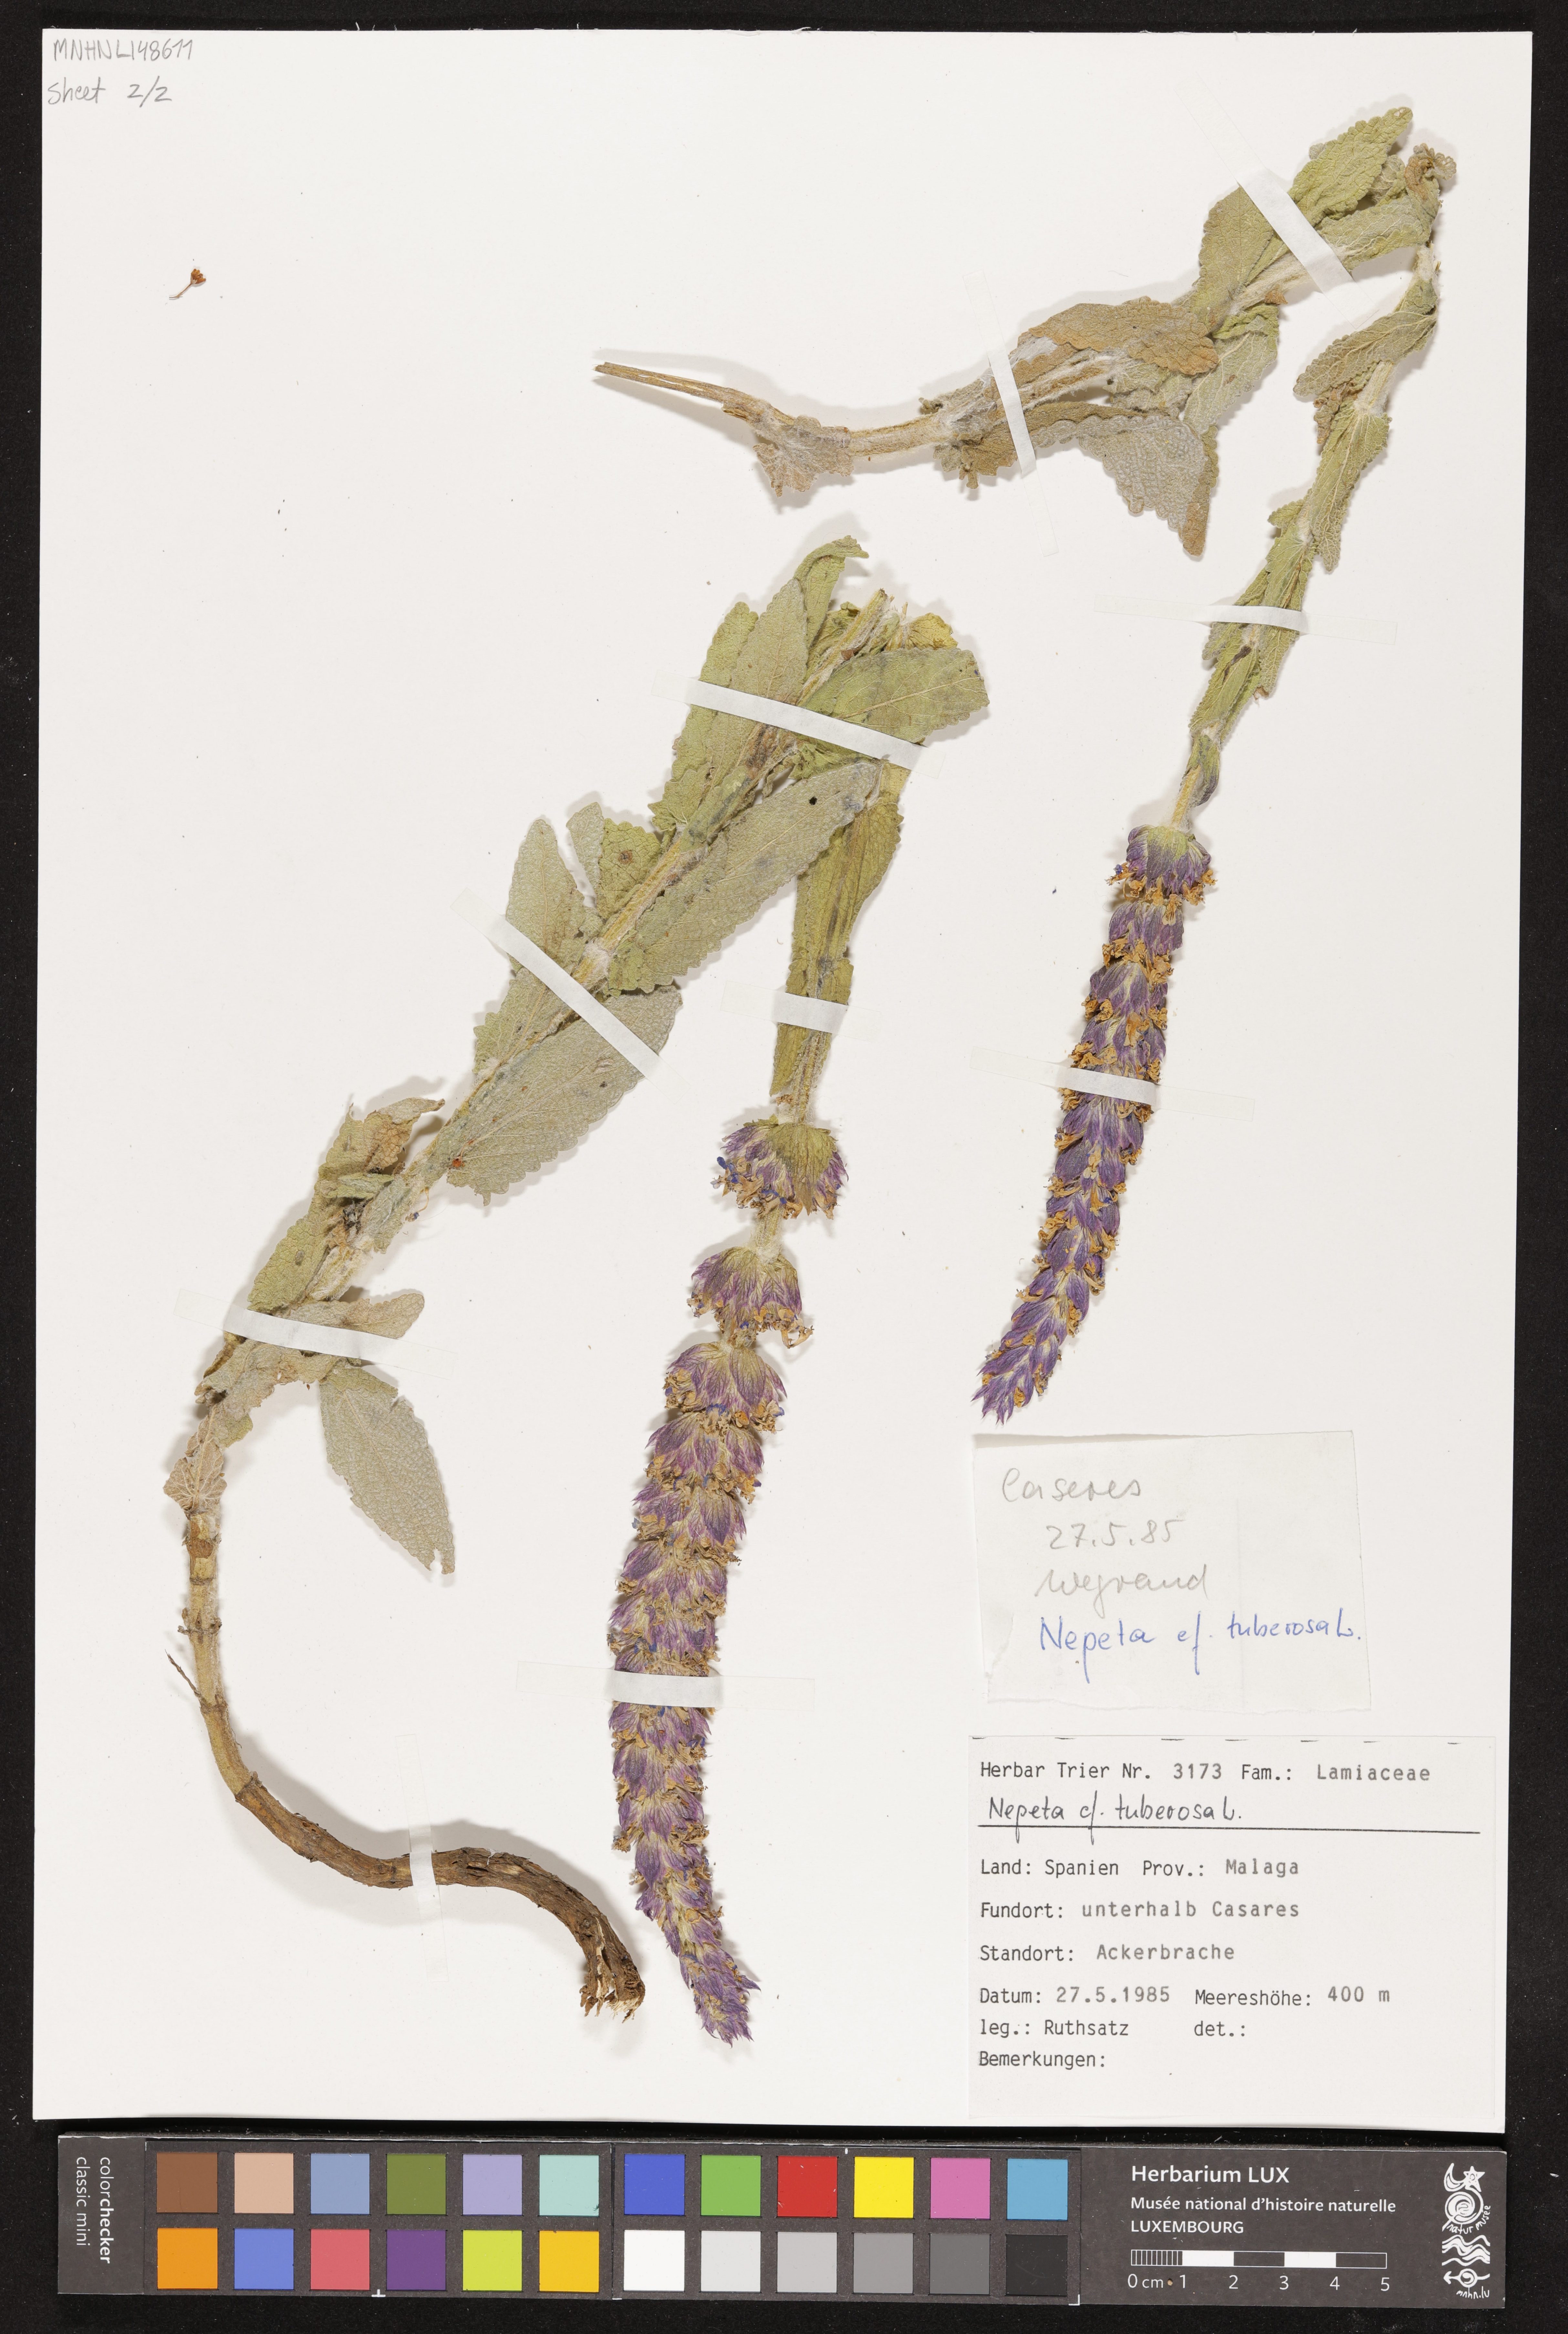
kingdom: Plantae
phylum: Tracheophyta
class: Magnoliopsida
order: Lamiales
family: Lamiaceae
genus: Nepeta
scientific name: Nepeta tuberosa
